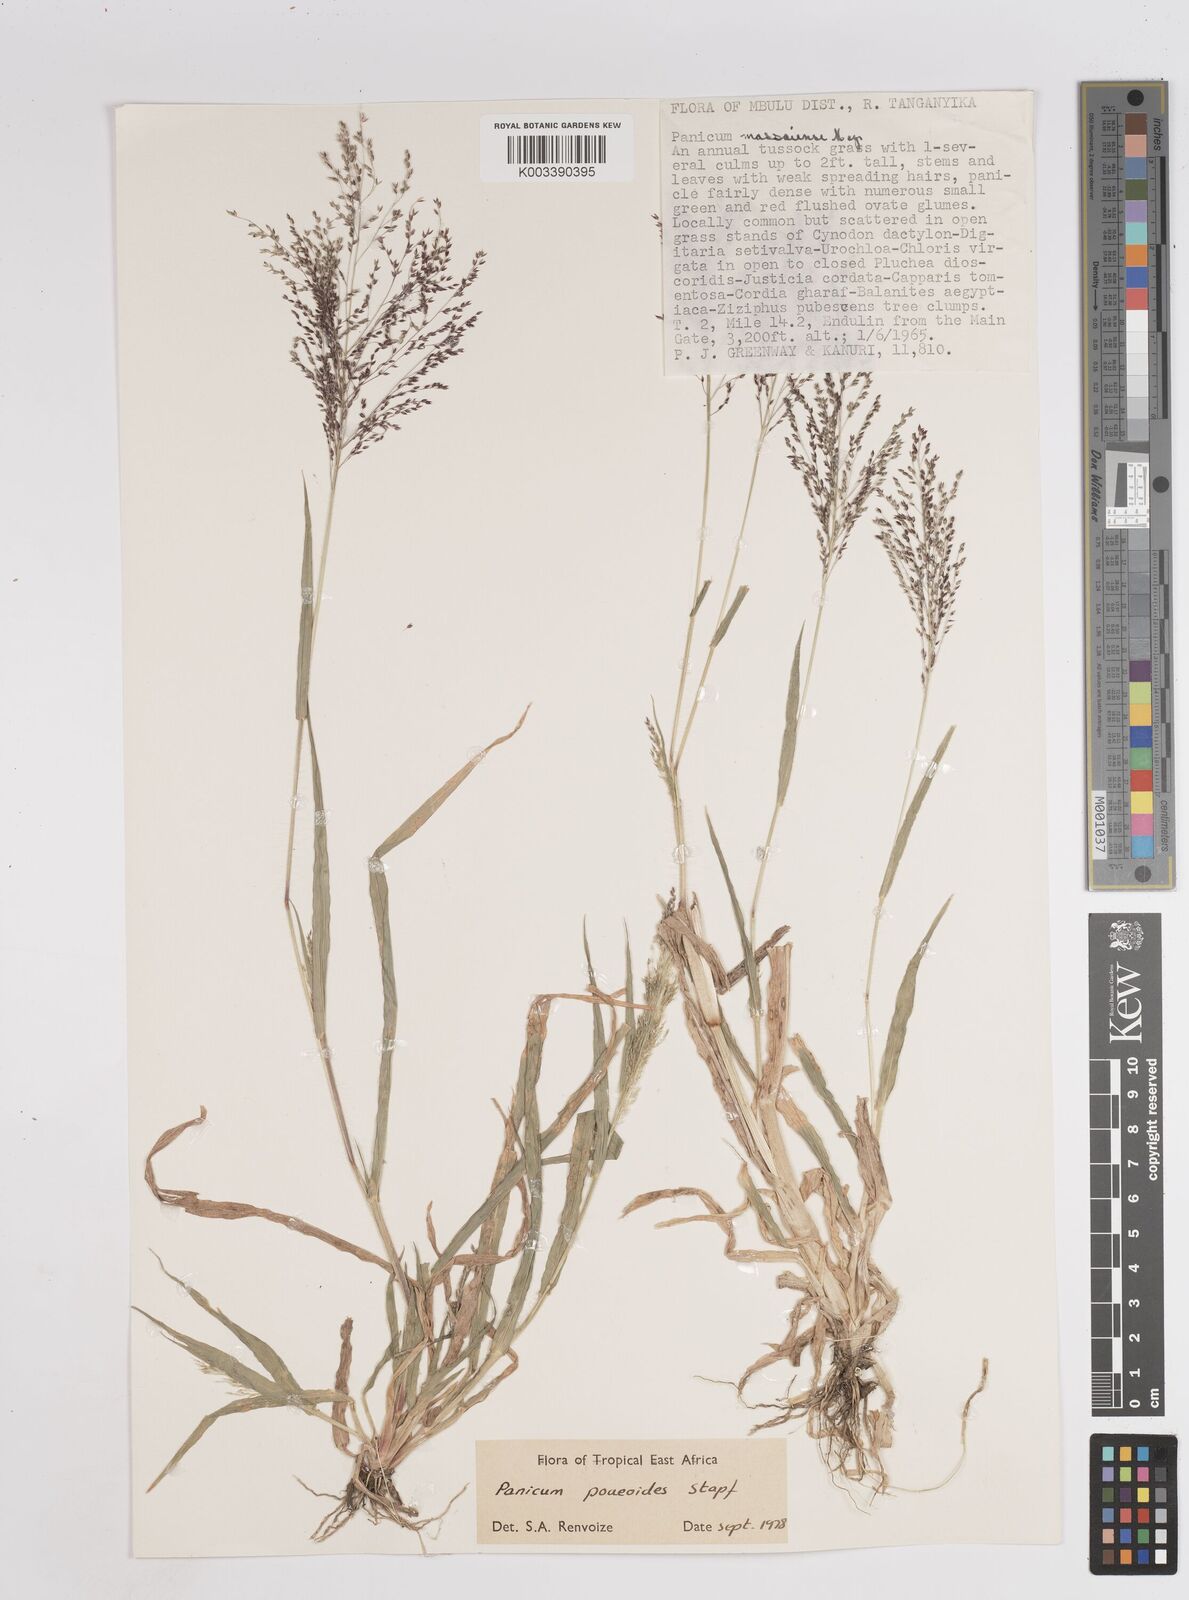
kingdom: Plantae
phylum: Tracheophyta
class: Liliopsida
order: Poales
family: Poaceae
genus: Panicum
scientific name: Panicum
